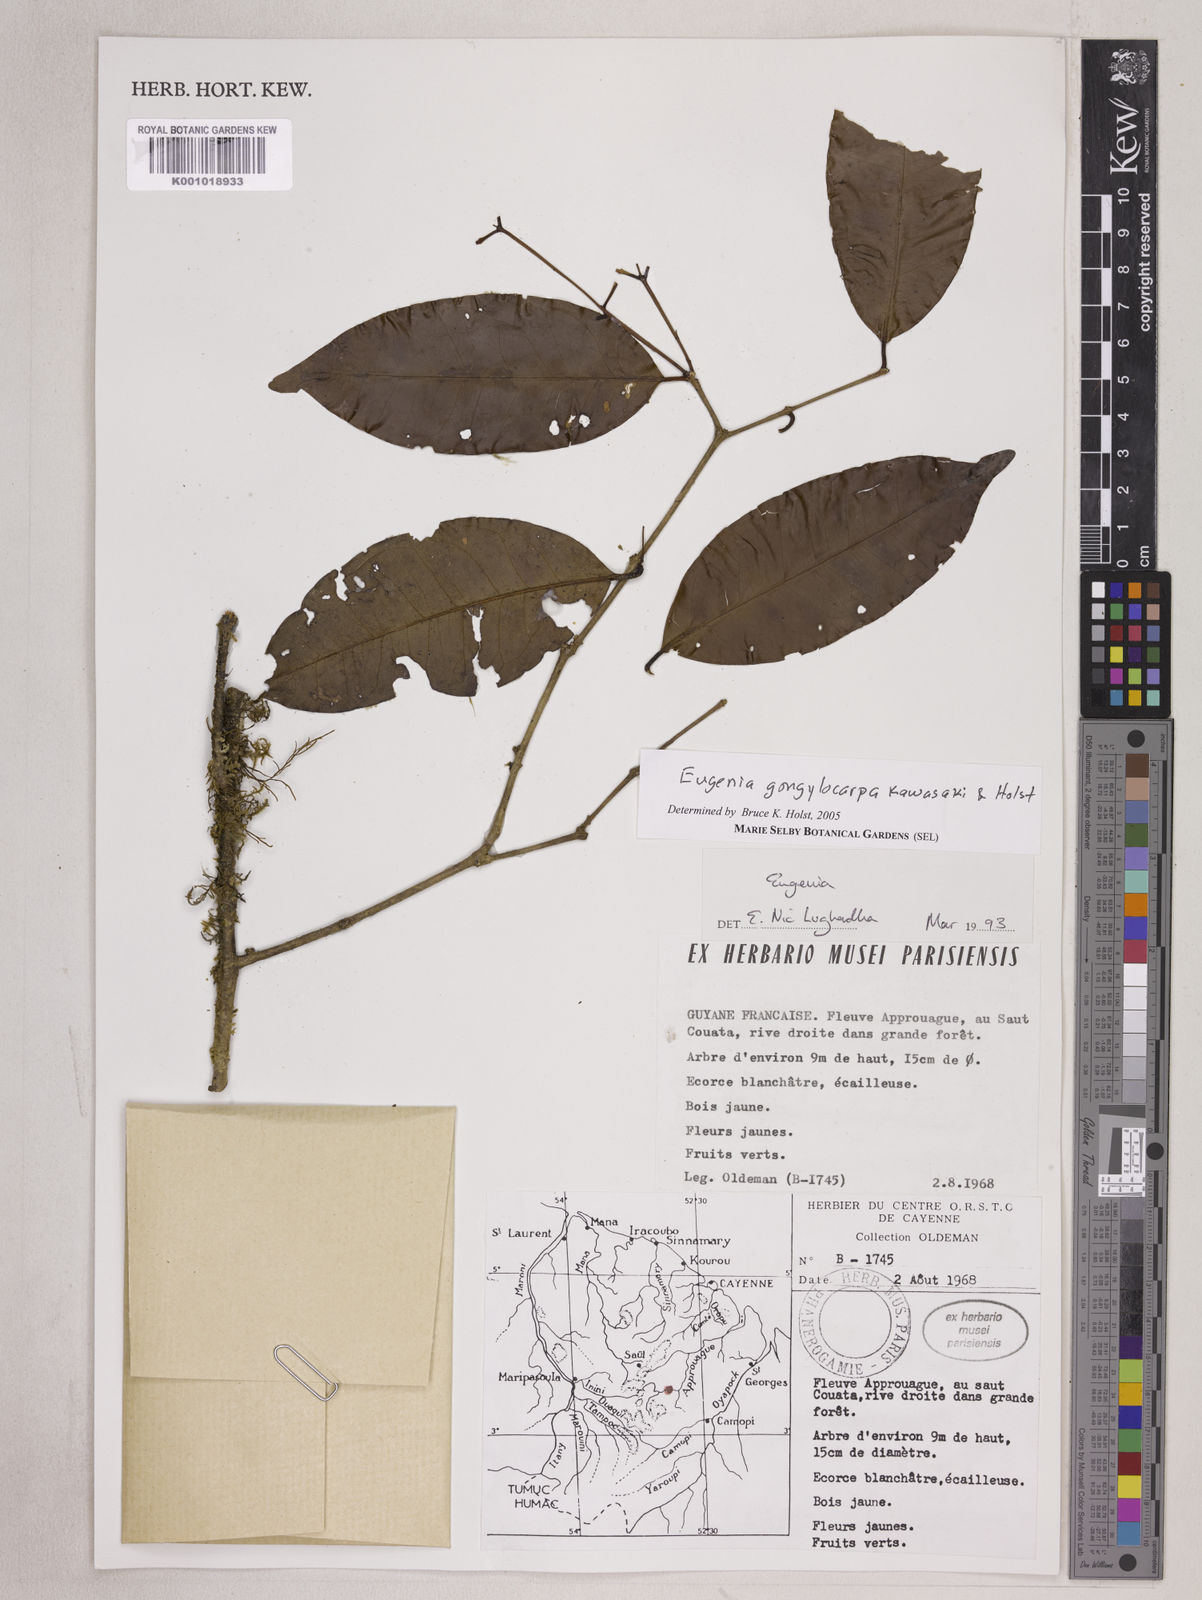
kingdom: Plantae
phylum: Tracheophyta
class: Magnoliopsida
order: Myrtales
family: Myrtaceae
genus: Eugenia
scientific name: Eugenia gongylocarpa
